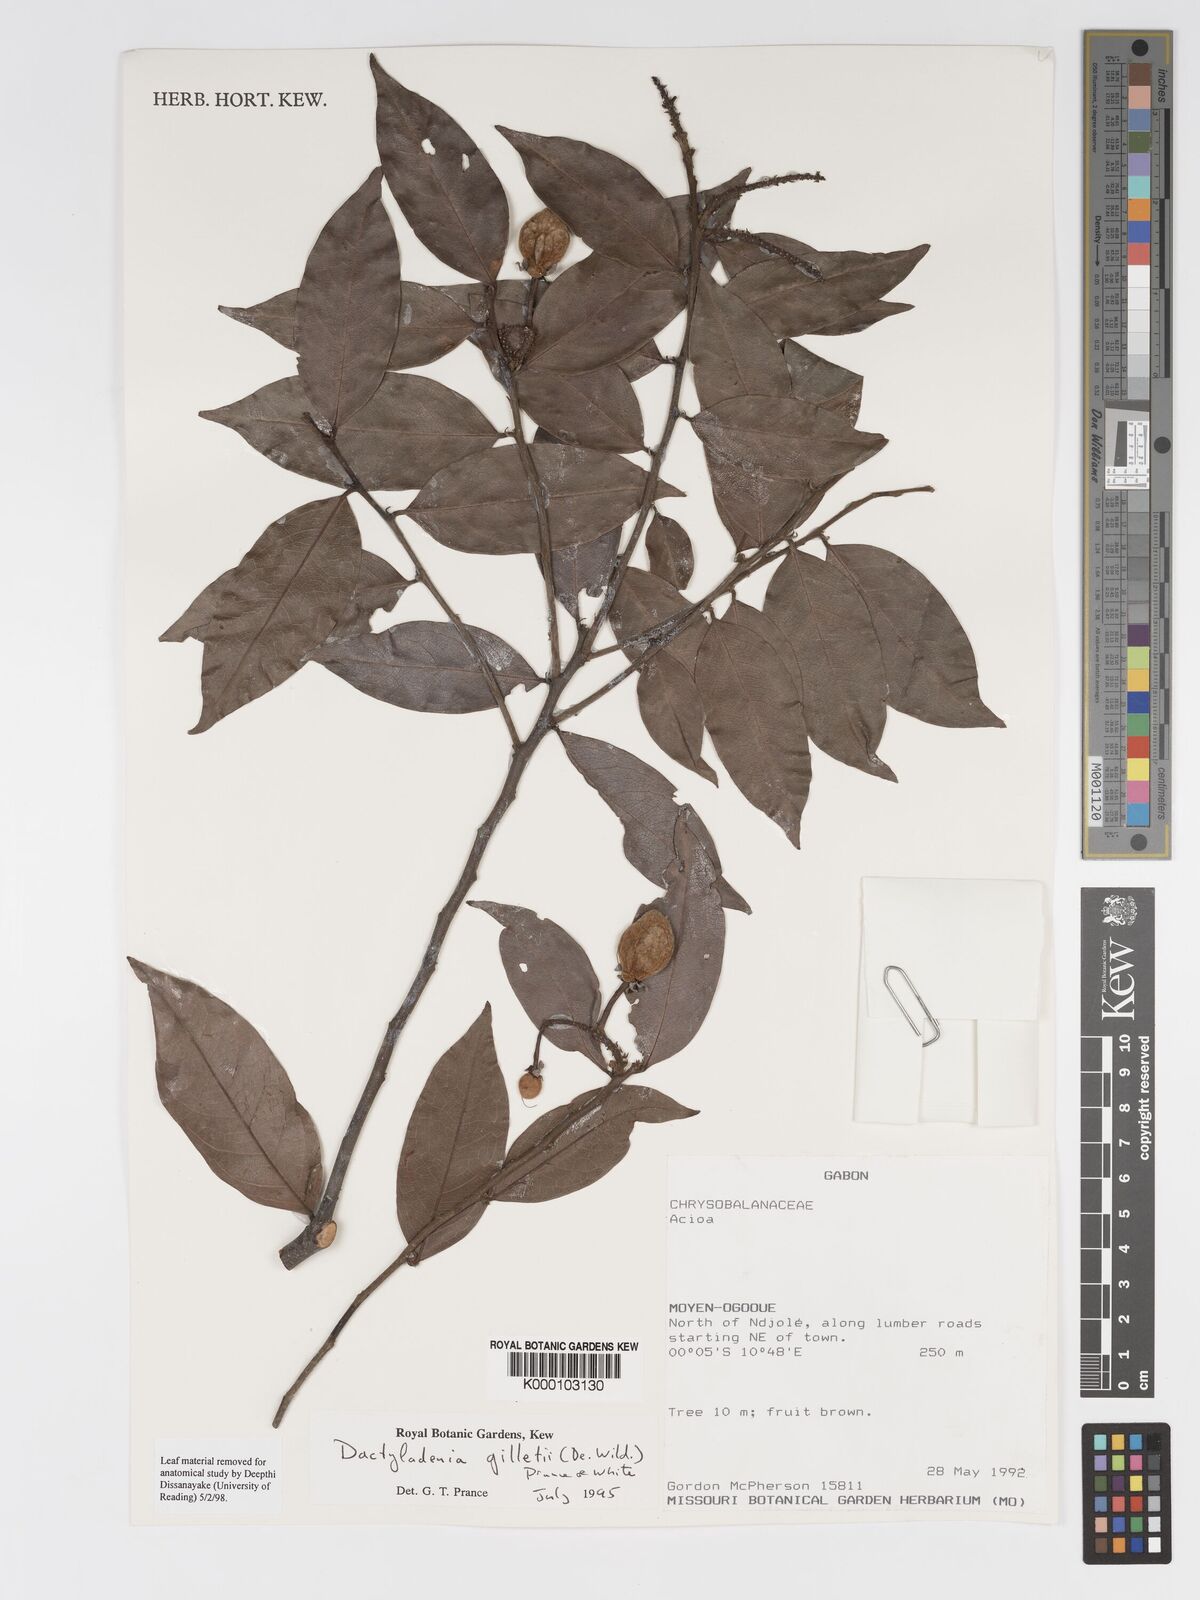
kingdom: Plantae
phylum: Tracheophyta
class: Magnoliopsida
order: Malpighiales
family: Chrysobalanaceae
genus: Dactyladenia
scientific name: Dactyladenia gilletii
